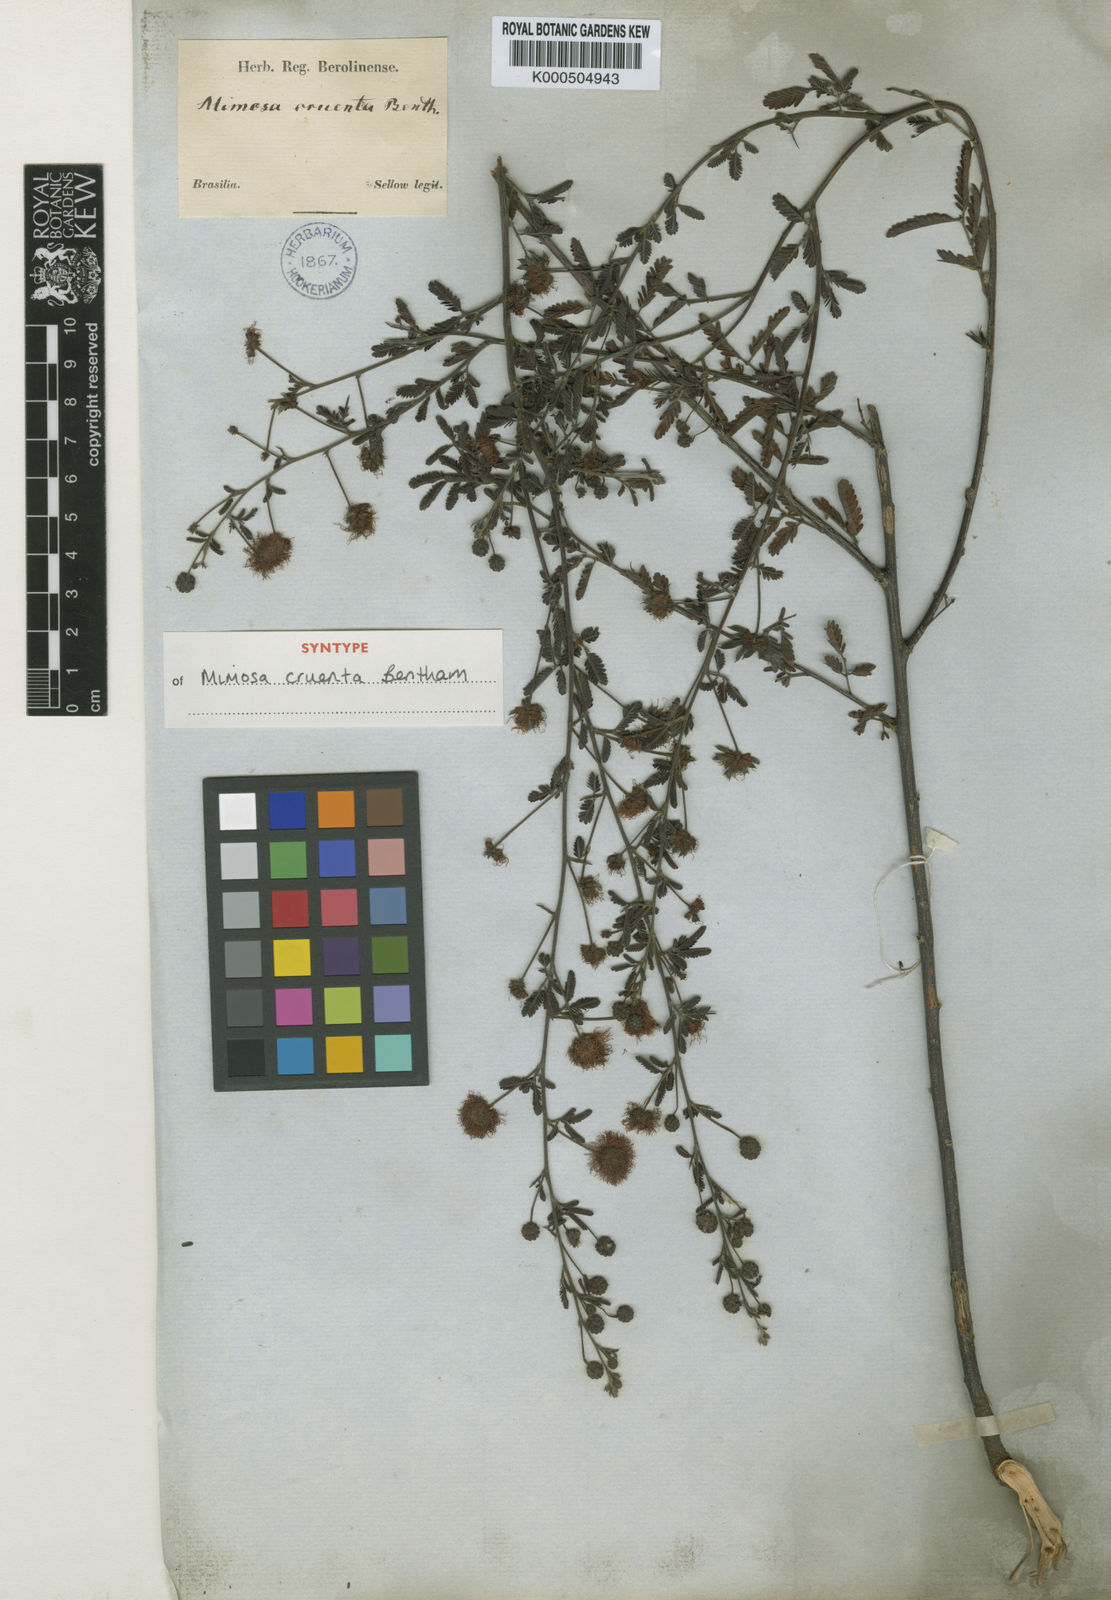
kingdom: Plantae
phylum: Tracheophyta
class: Magnoliopsida
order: Fabales
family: Fabaceae
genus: Mimosa
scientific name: Mimosa sanguinolenta
